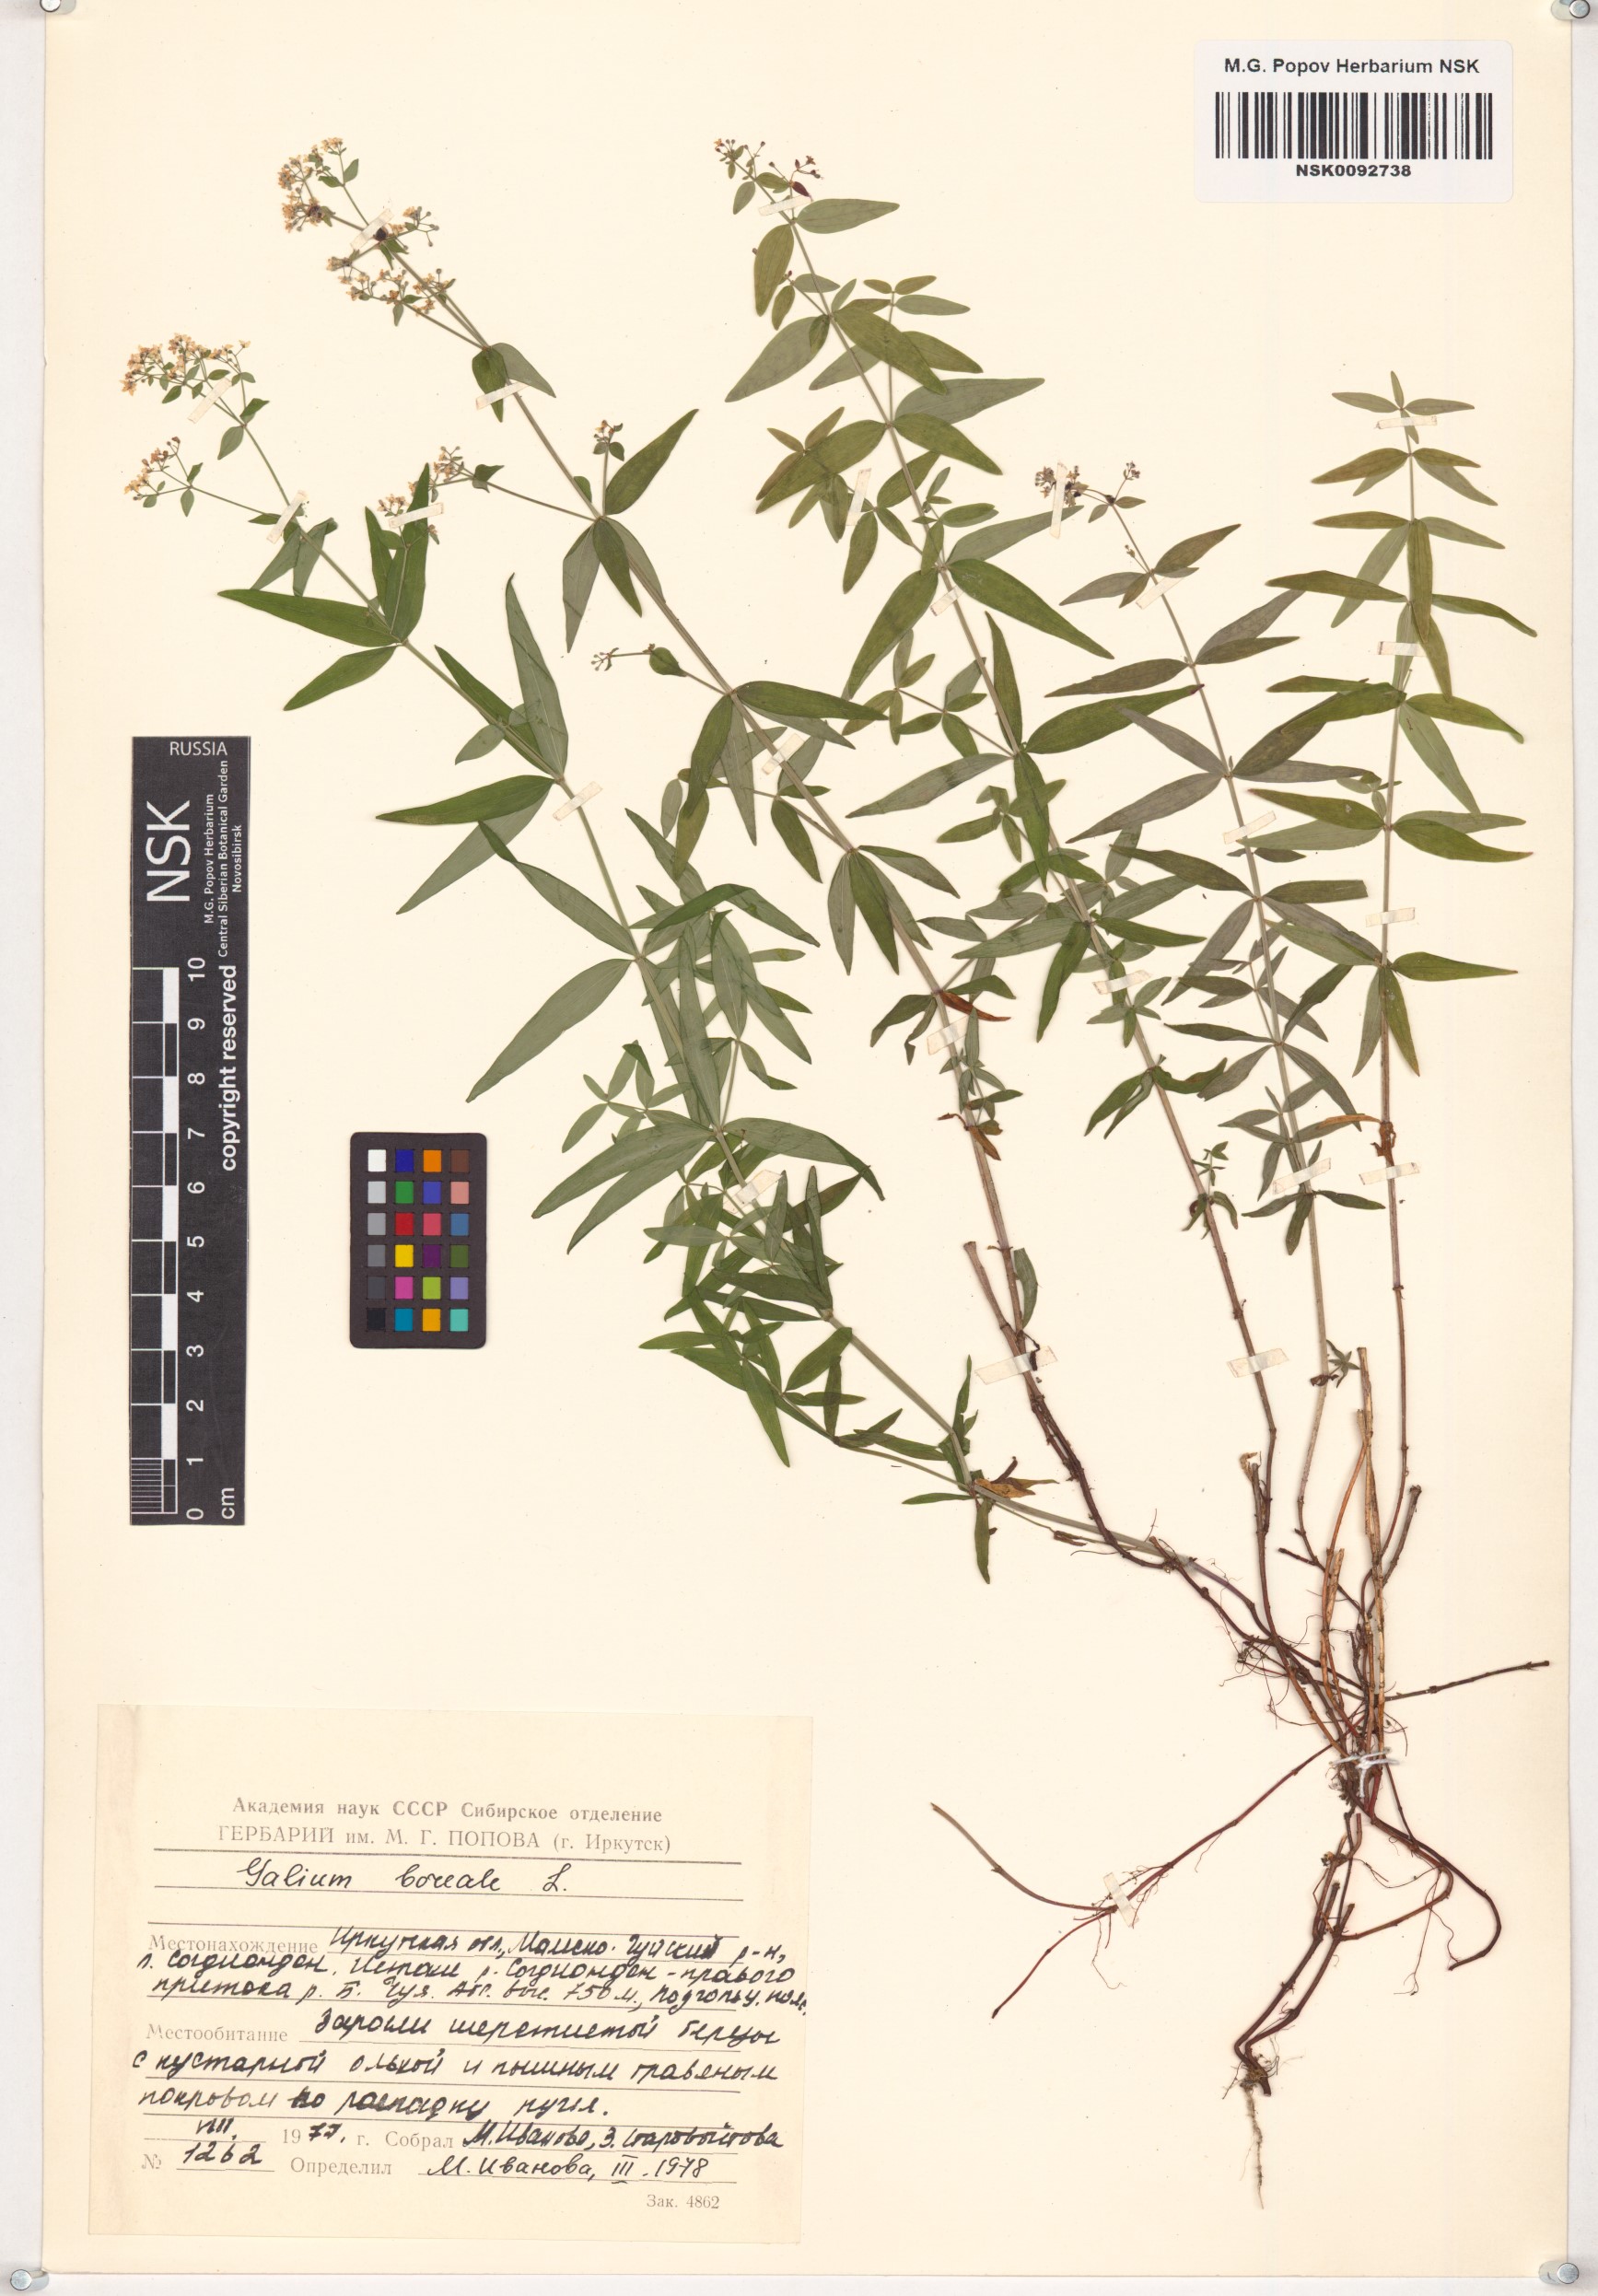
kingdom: Plantae
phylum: Tracheophyta
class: Magnoliopsida
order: Gentianales
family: Rubiaceae
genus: Galium
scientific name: Galium boreale
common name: Northern bedstraw
